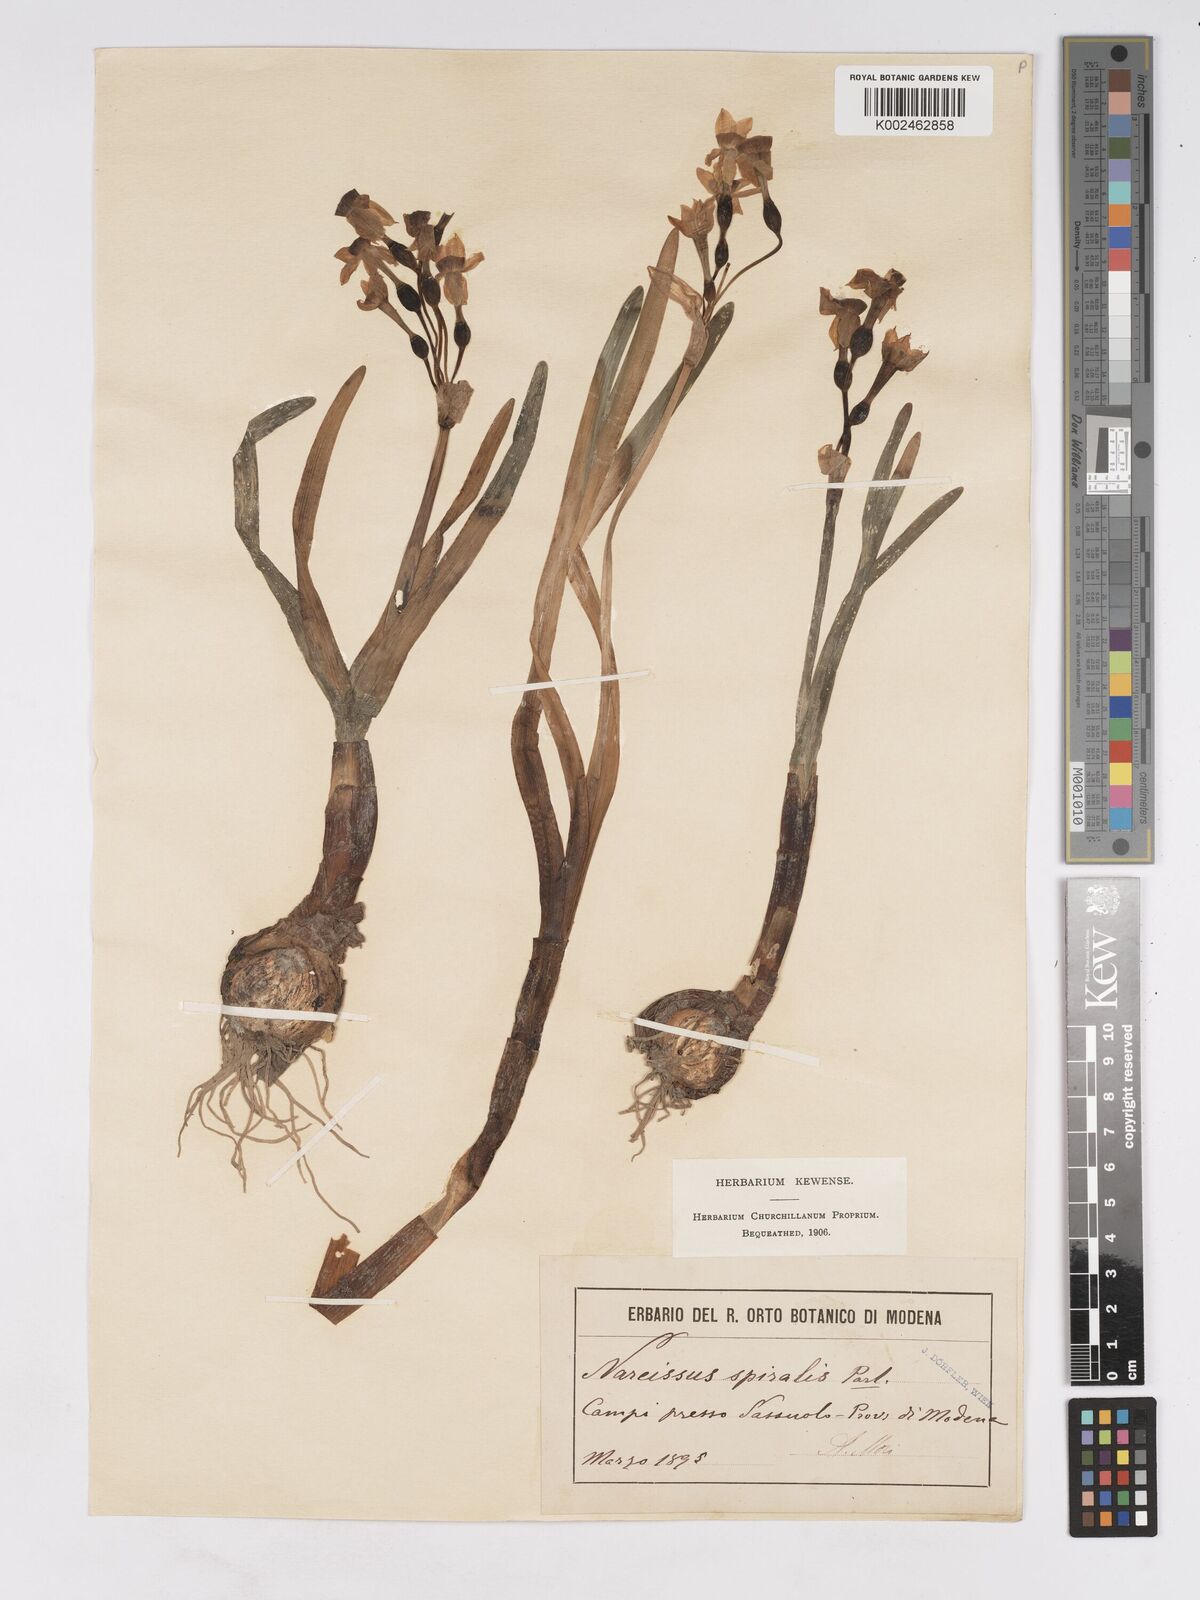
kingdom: Plantae
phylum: Tracheophyta
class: Liliopsida
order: Asparagales
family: Amaryllidaceae
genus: Narcissus
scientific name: Narcissus tazetta
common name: Bunch-flowered daffodil
